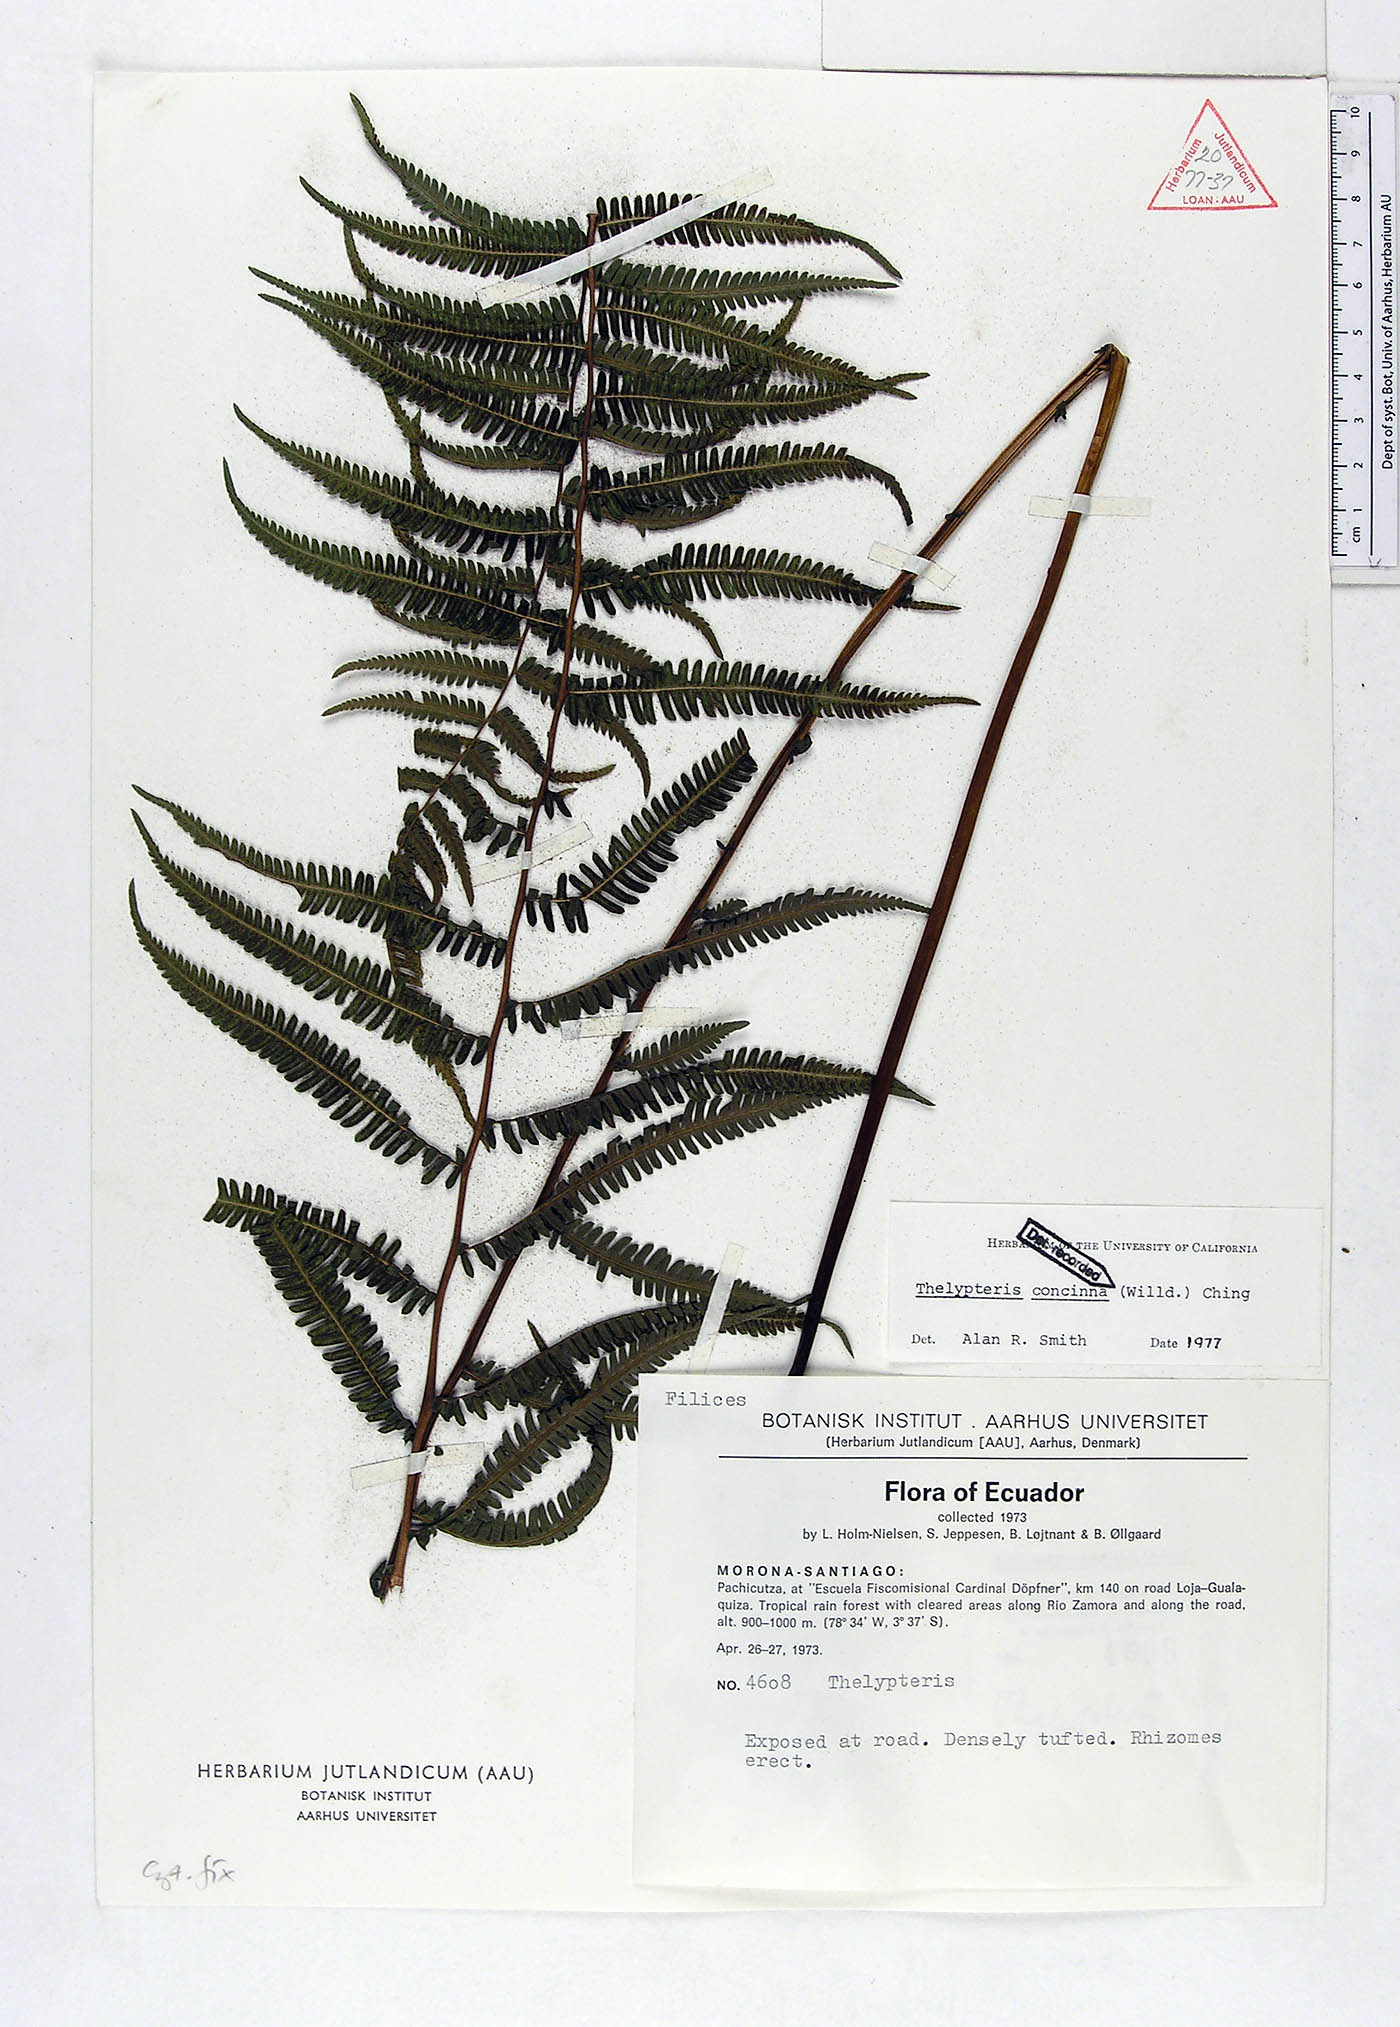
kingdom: Plantae
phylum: Tracheophyta
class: Polypodiopsida
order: Polypodiales
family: Thelypteridaceae
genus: Amauropelta
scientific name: Amauropelta concinna
